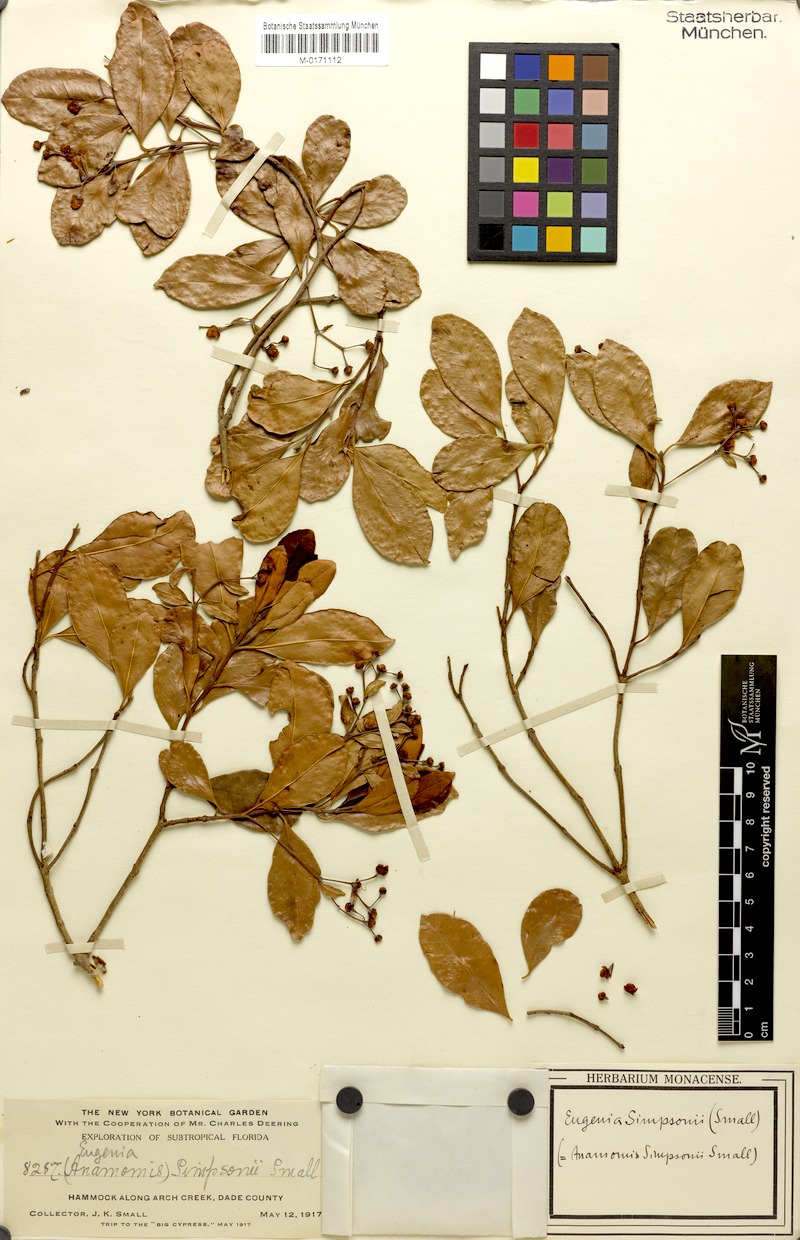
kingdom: Plantae
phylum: Tracheophyta
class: Magnoliopsida
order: Myrtales
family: Myrtaceae
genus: Myrcianthes
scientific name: Myrcianthes fragrans
